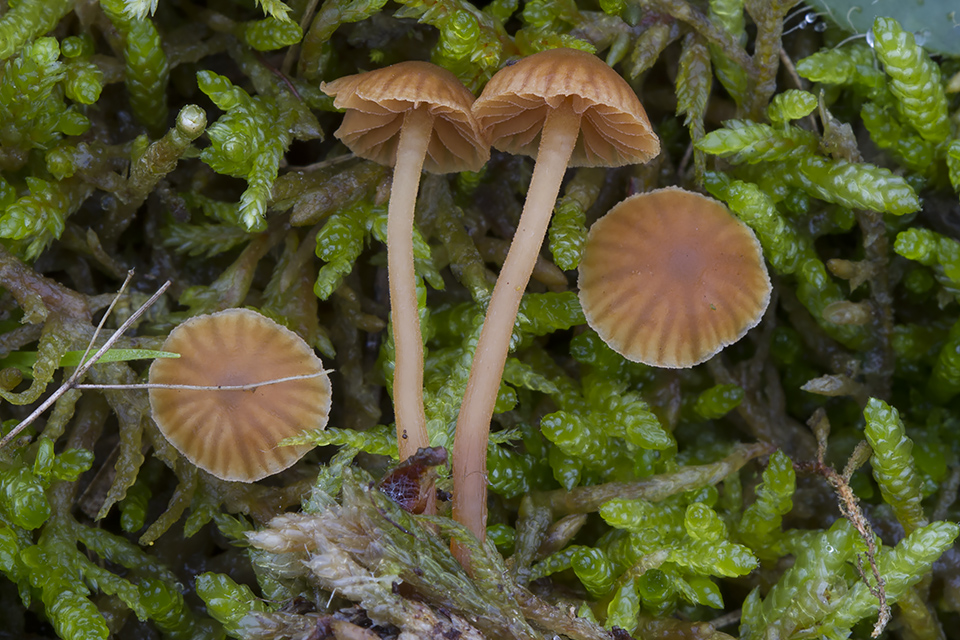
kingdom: Fungi
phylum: Basidiomycota
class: Agaricomycetes
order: Agaricales
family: Hymenogastraceae
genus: Galerina
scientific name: Galerina vittiformis
